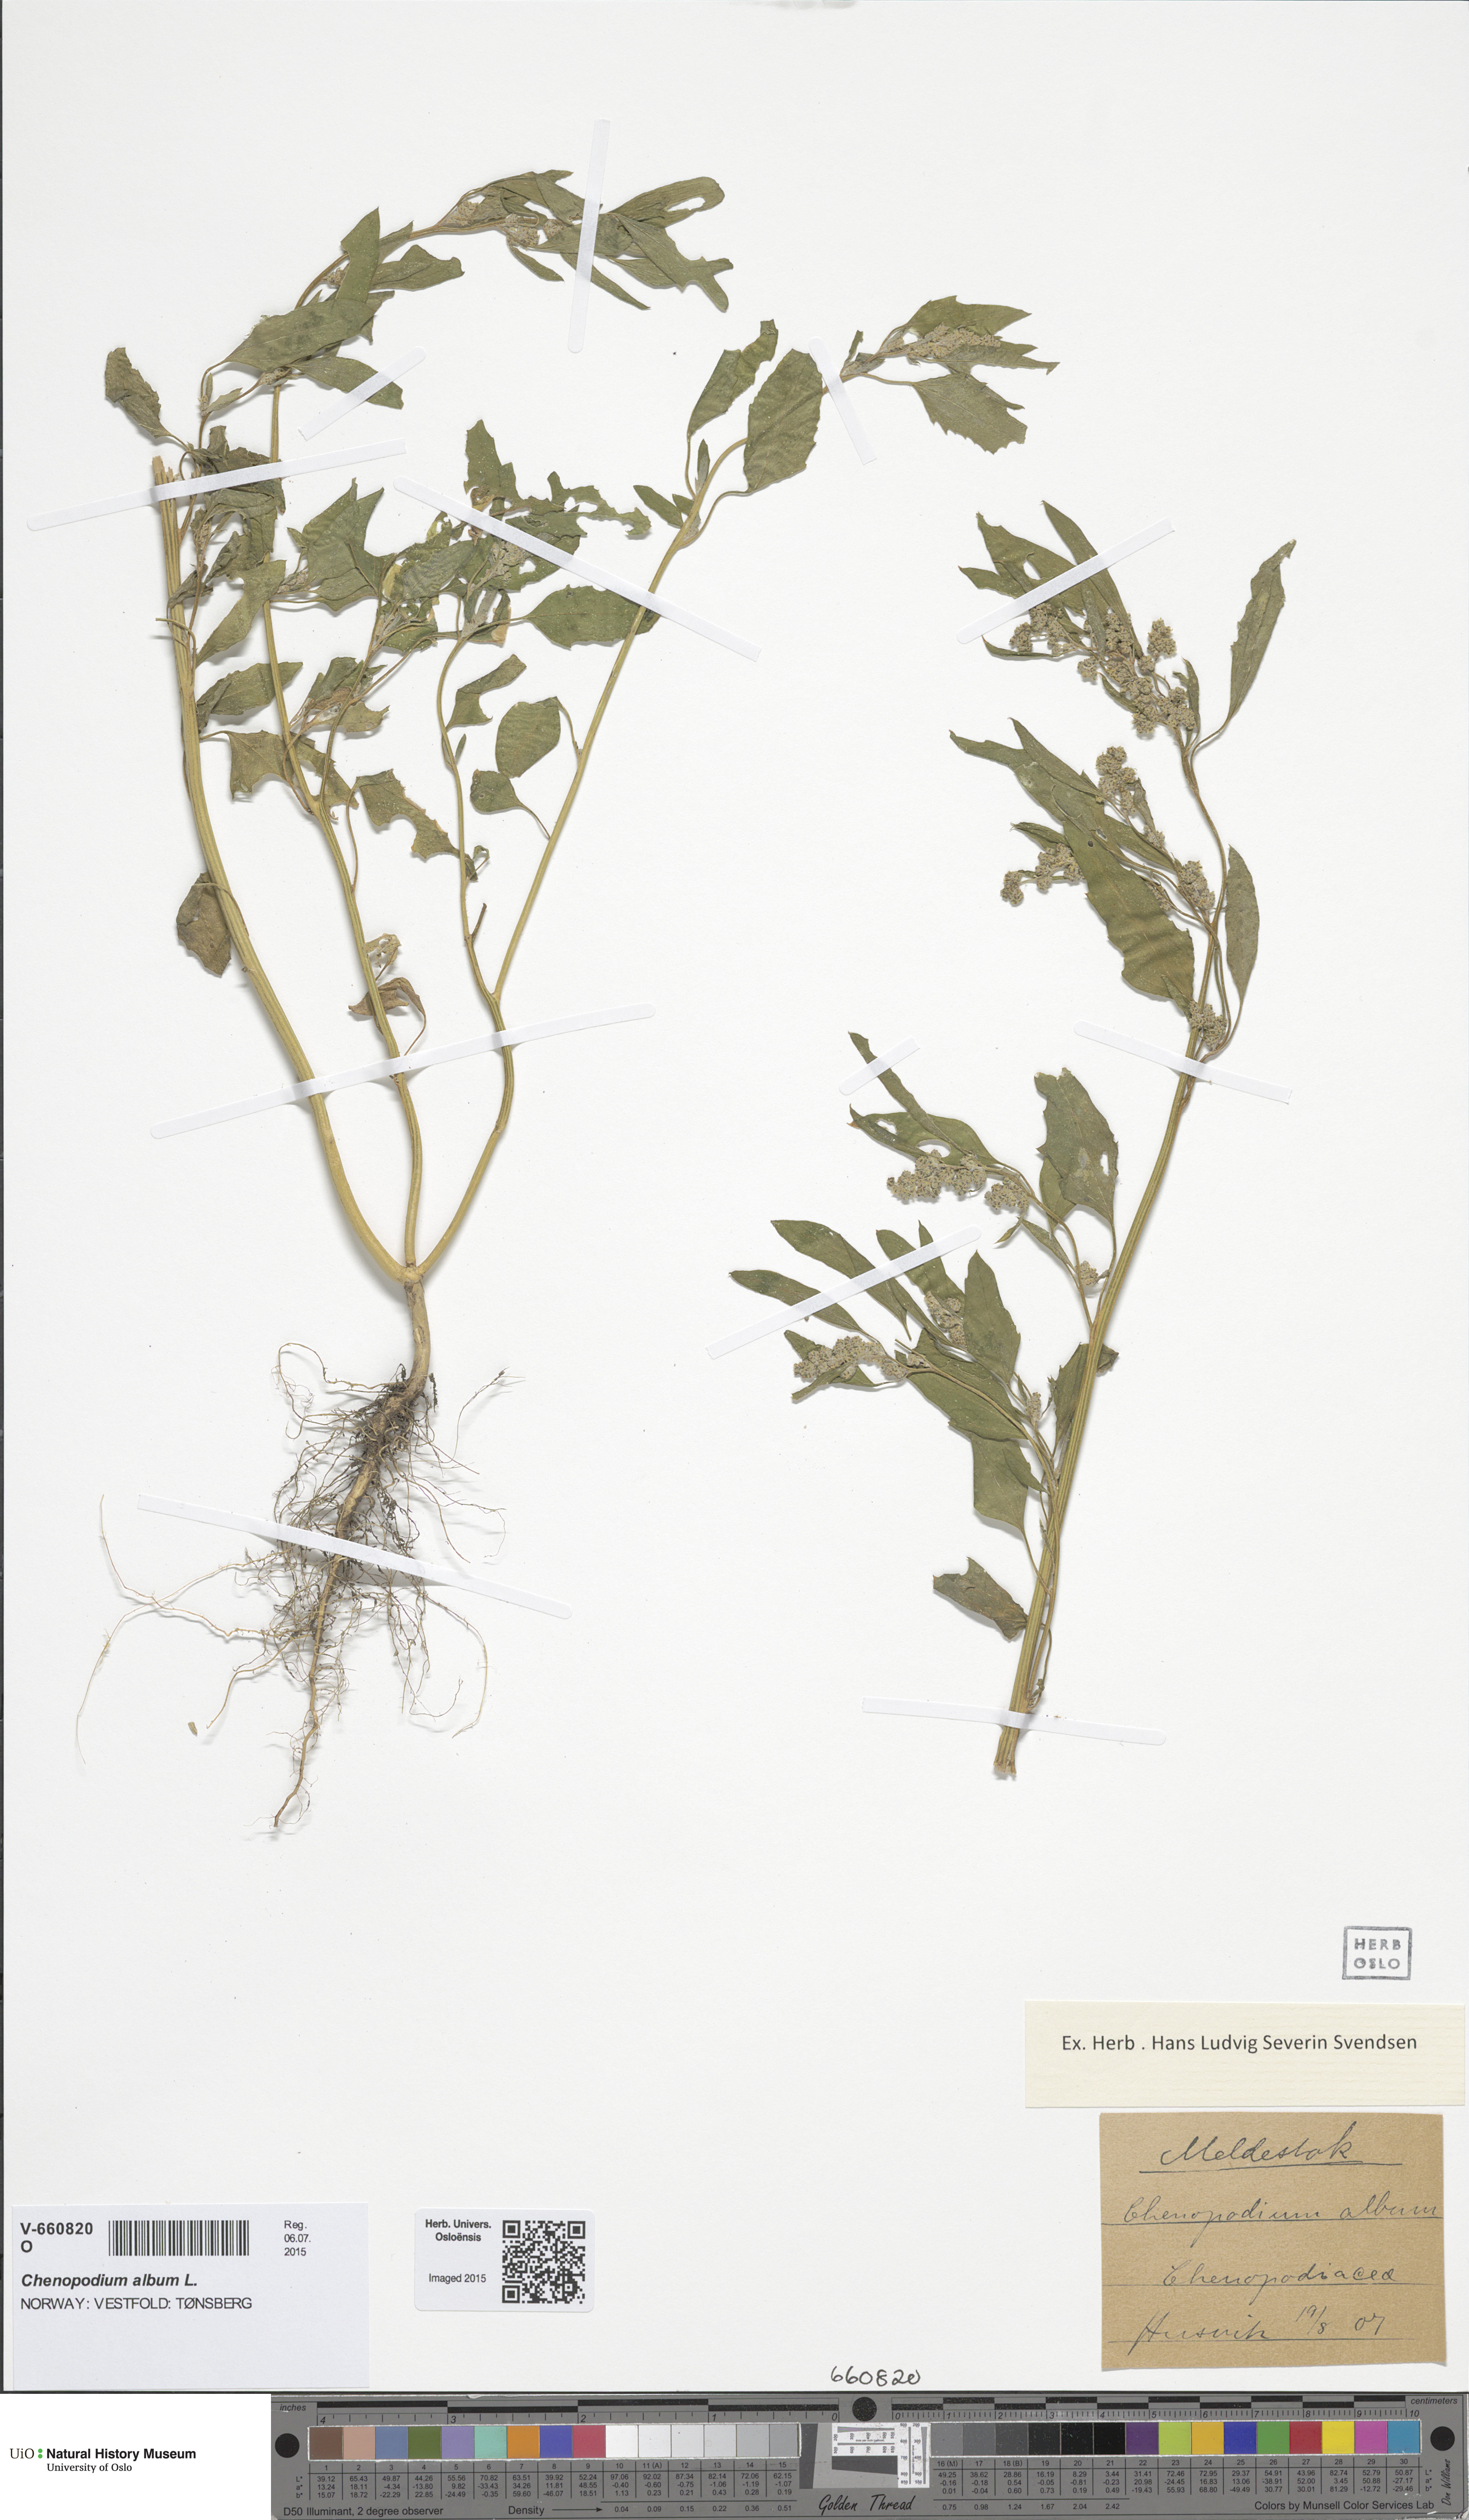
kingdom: Plantae
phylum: Tracheophyta
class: Magnoliopsida
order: Caryophyllales
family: Amaranthaceae
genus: Chenopodium
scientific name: Chenopodium album
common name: Fat-hen
